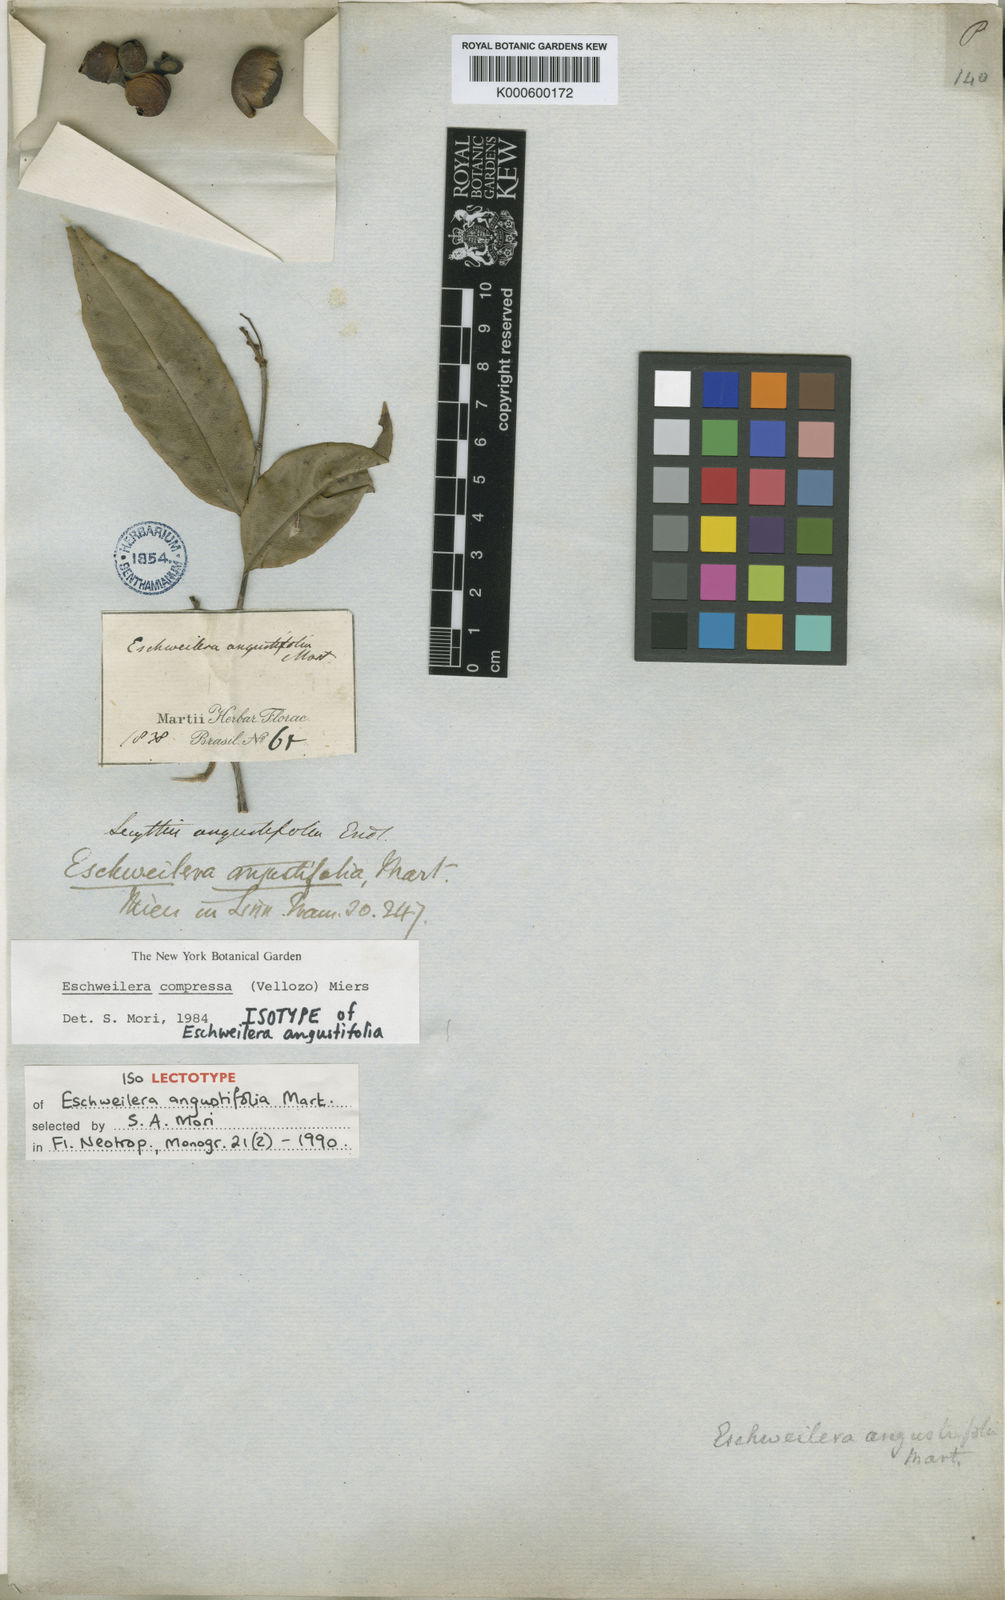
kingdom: Plantae
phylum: Tracheophyta
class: Magnoliopsida
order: Ericales
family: Lecythidaceae
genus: Eschweilera
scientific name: Eschweilera compressa
